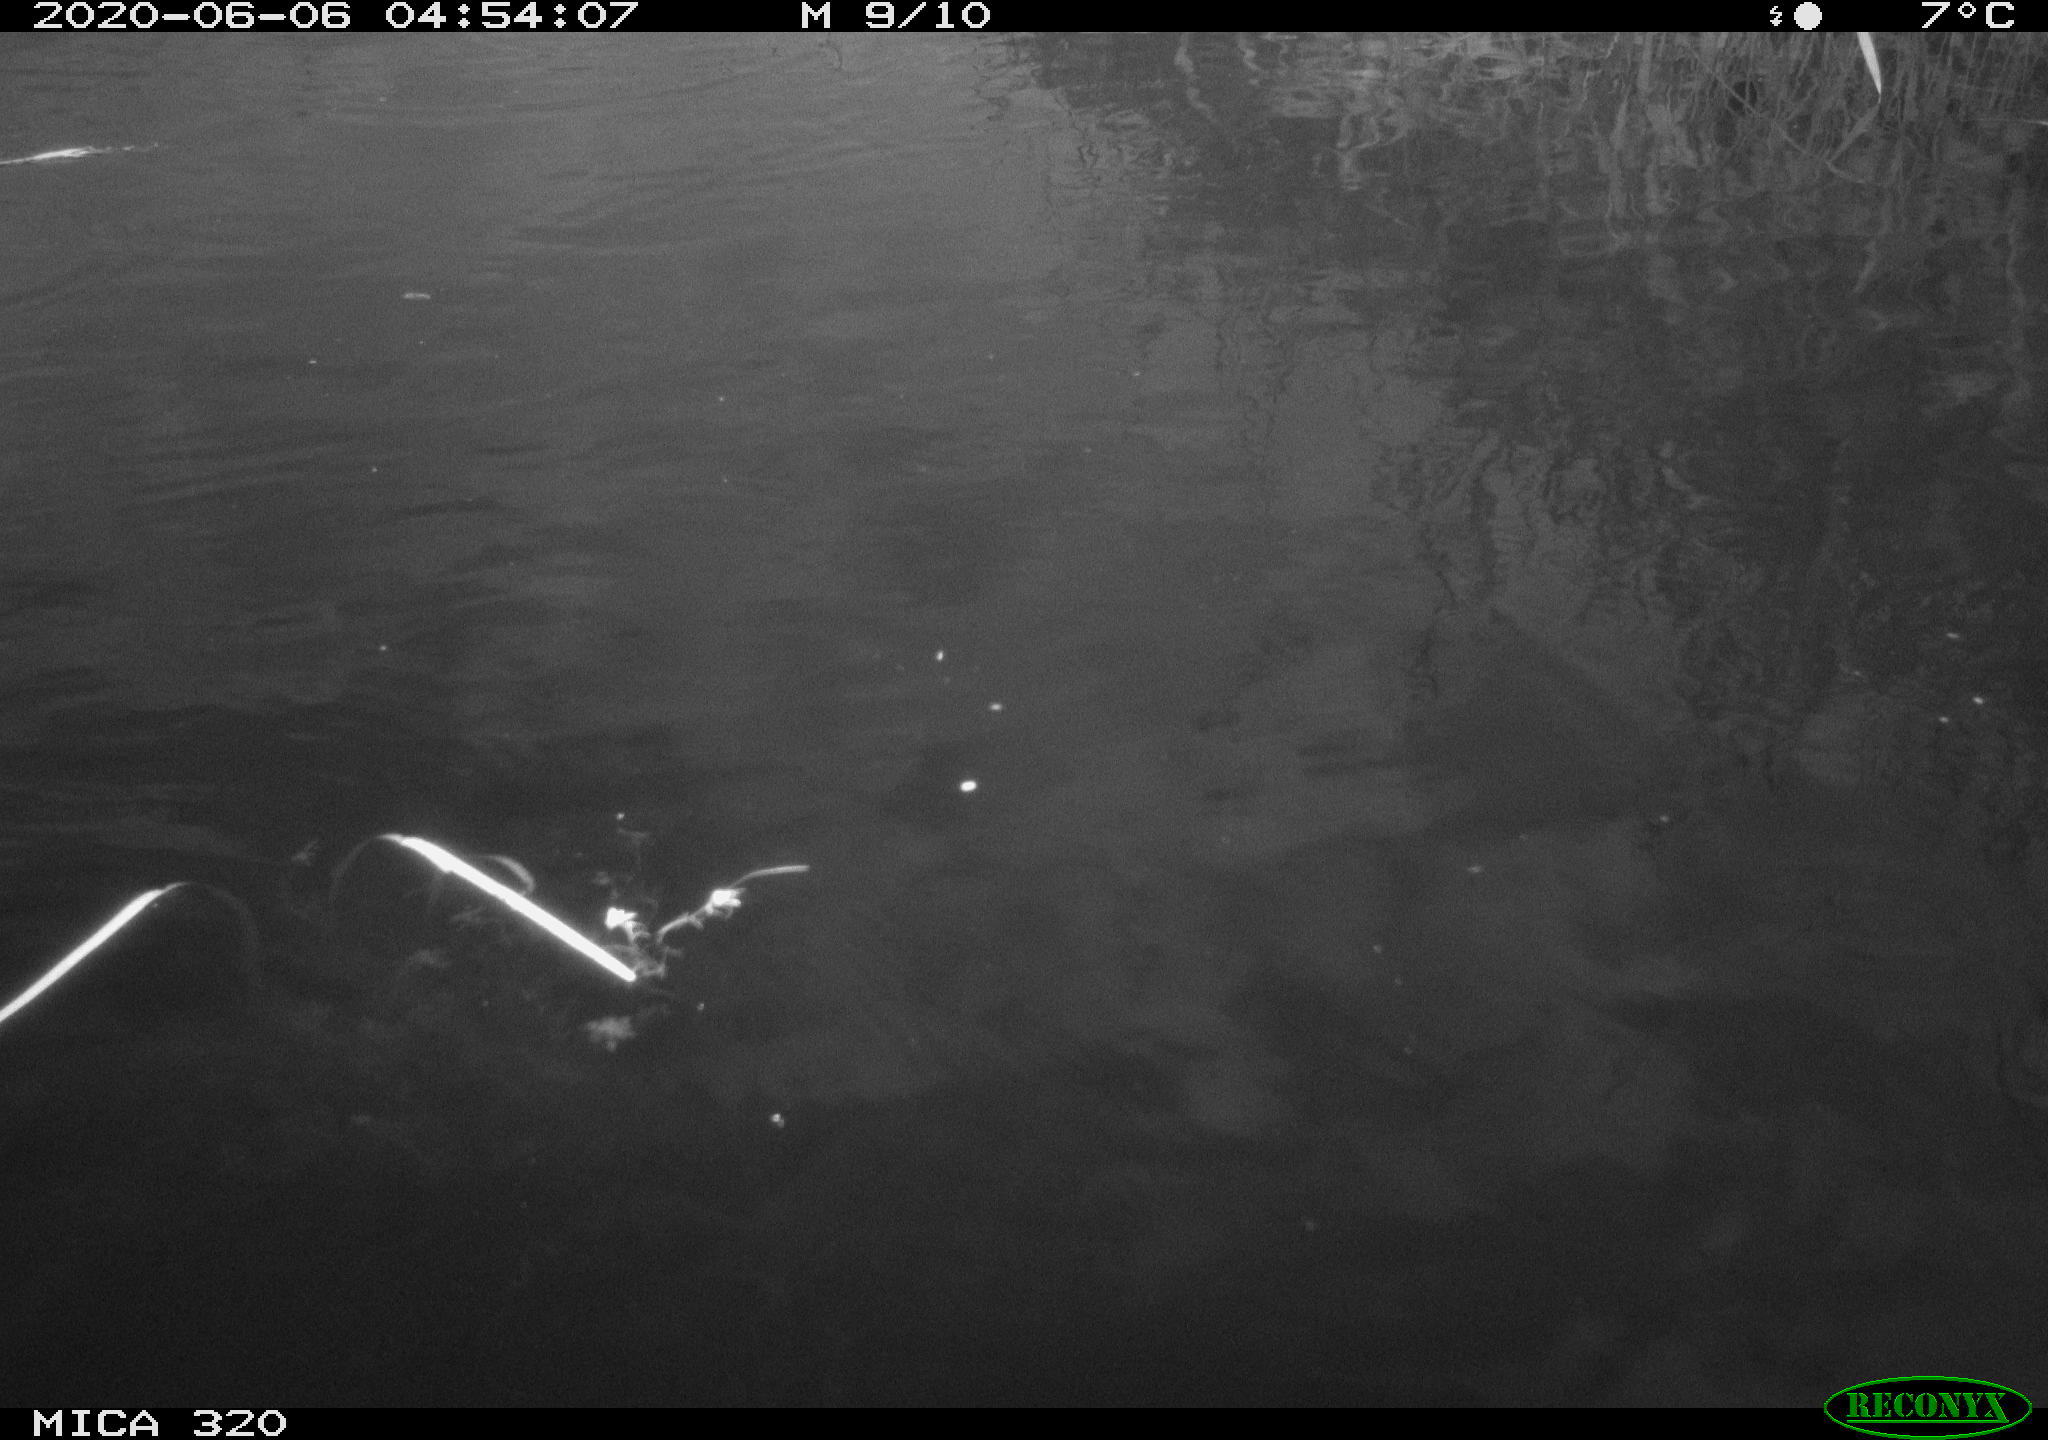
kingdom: Animalia
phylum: Chordata
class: Aves
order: Anseriformes
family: Anatidae
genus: Anas
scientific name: Anas platyrhynchos
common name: Mallard
